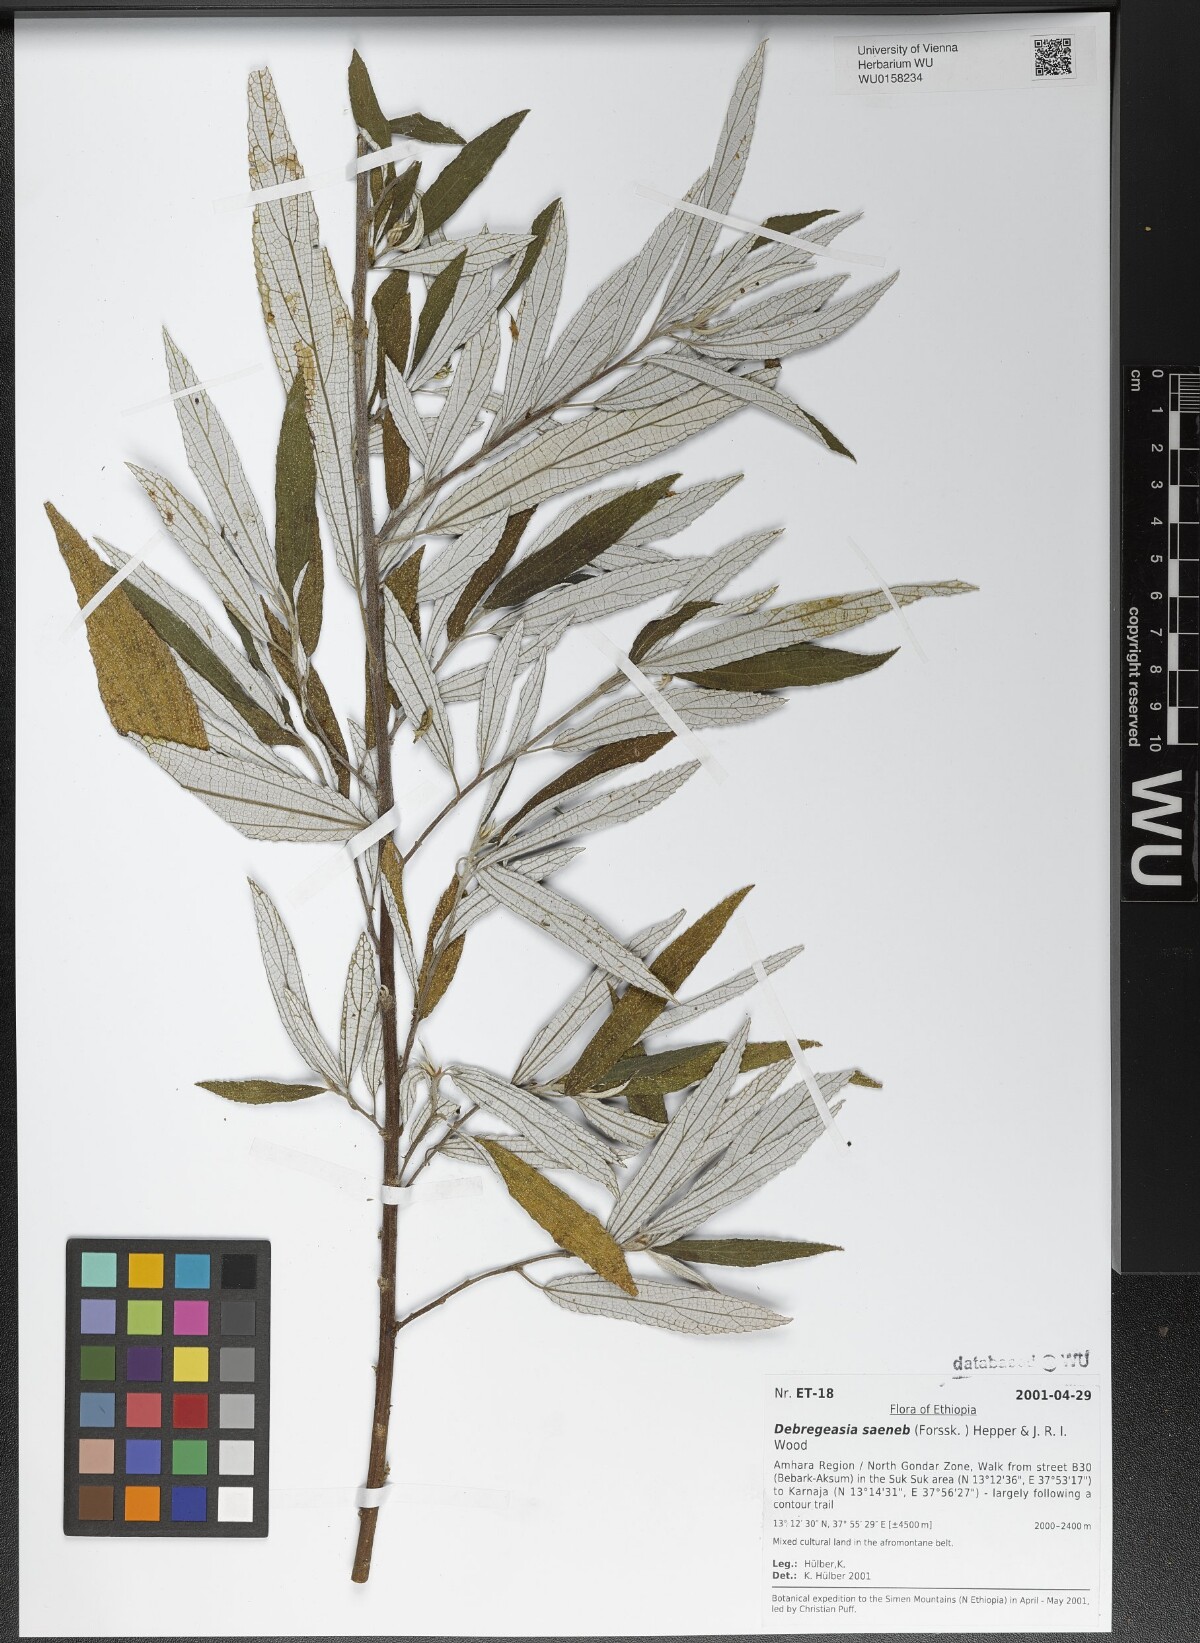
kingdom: Plantae
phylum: Tracheophyta
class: Magnoliopsida
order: Rosales
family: Urticaceae
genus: Debregeasia
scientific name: Debregeasia saeneb
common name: Himalayan wild rhea
